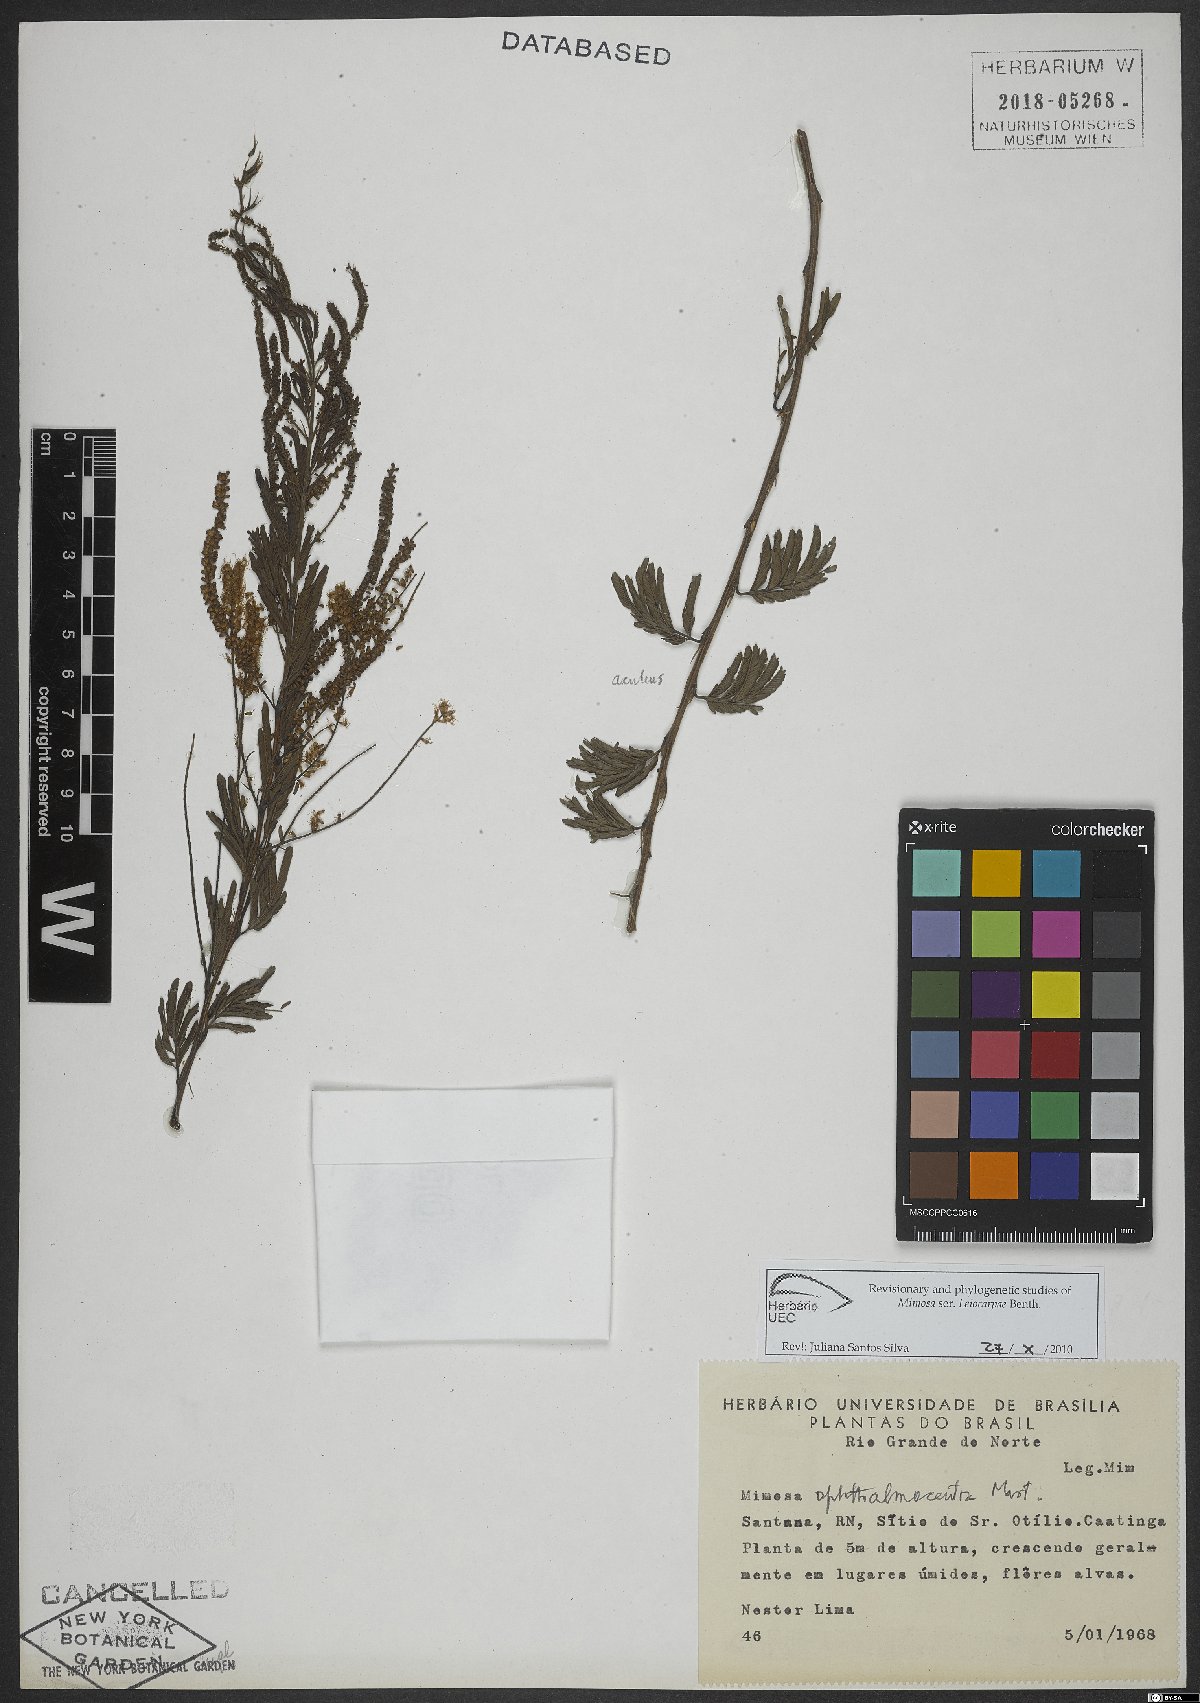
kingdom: Plantae
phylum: Tracheophyta
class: Magnoliopsida
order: Fabales
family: Fabaceae
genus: Mimosa
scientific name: Mimosa ophthalmocentra
